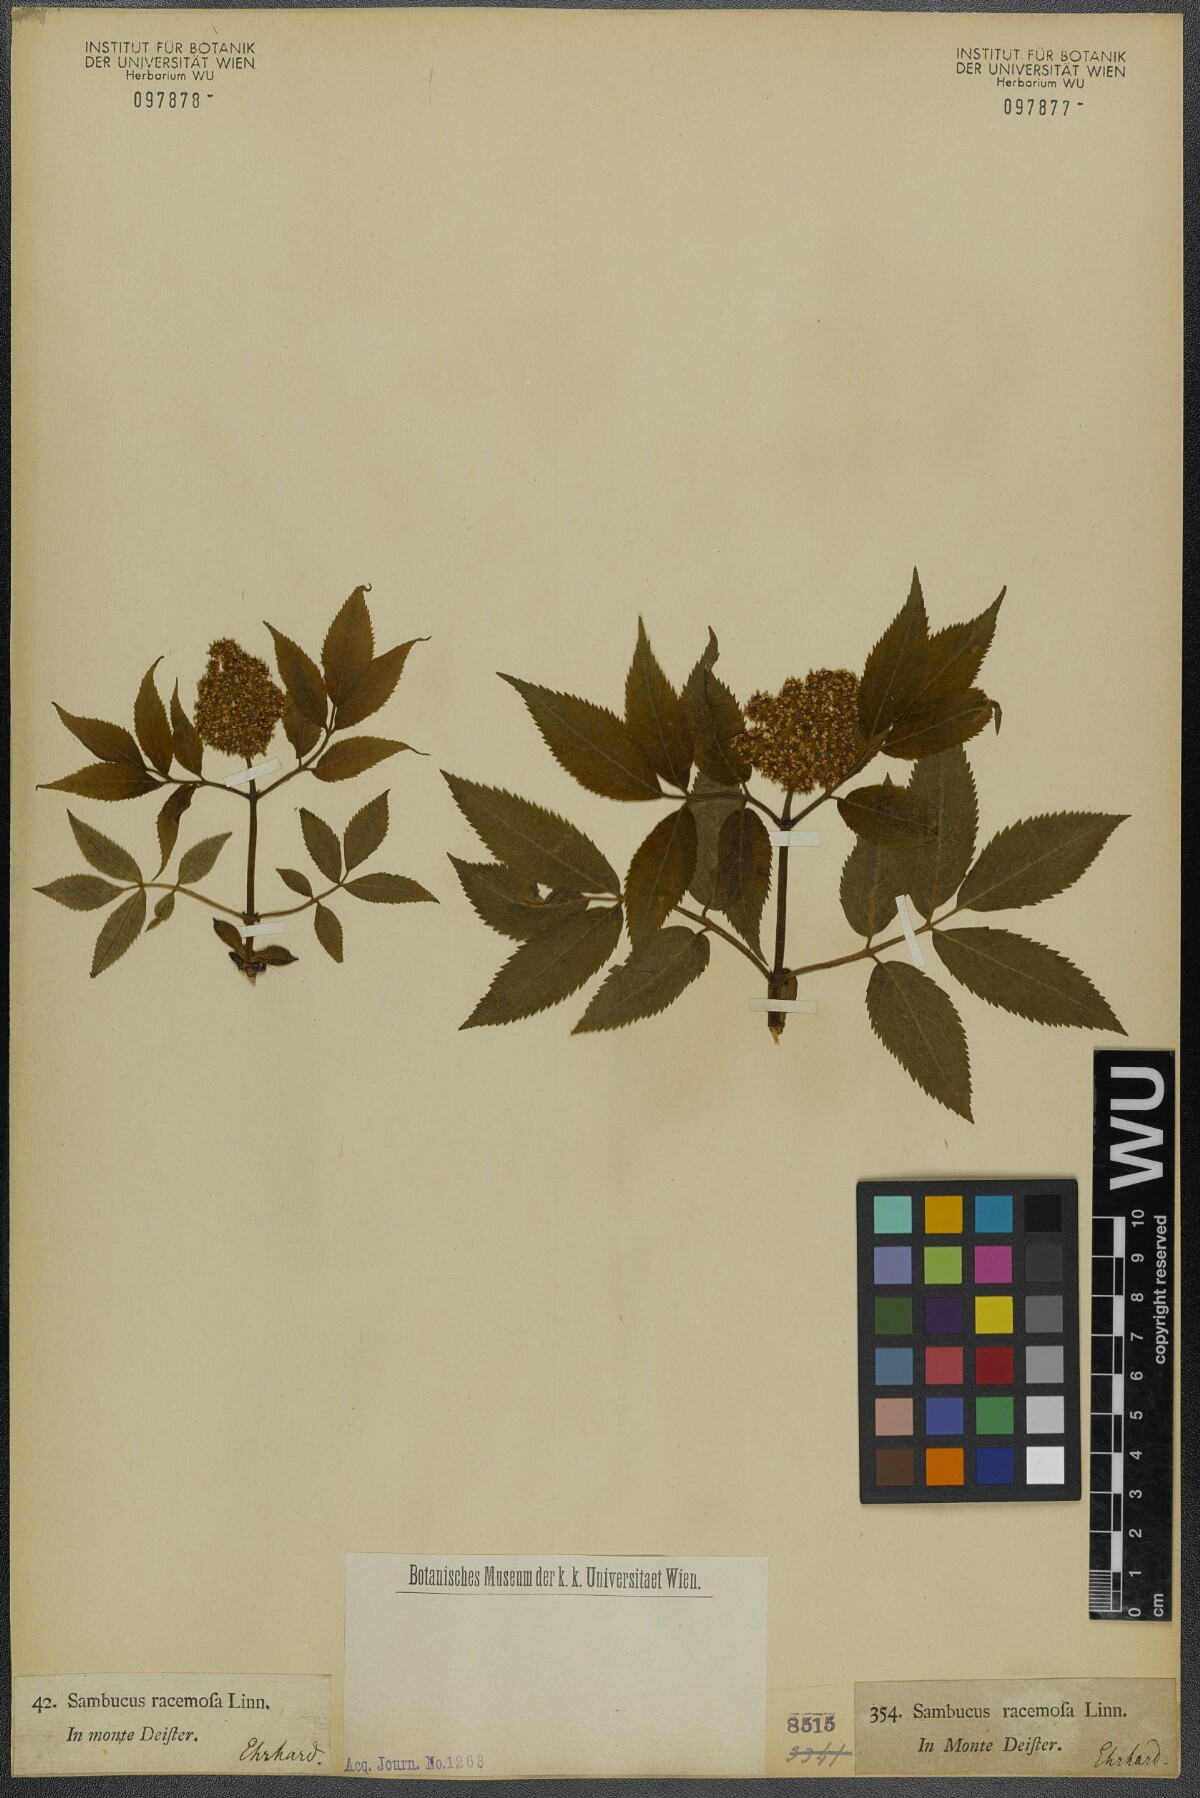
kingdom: Plantae
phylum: Tracheophyta
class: Magnoliopsida
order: Dipsacales
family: Viburnaceae
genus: Sambucus
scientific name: Sambucus racemosa
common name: Red-berried elder
